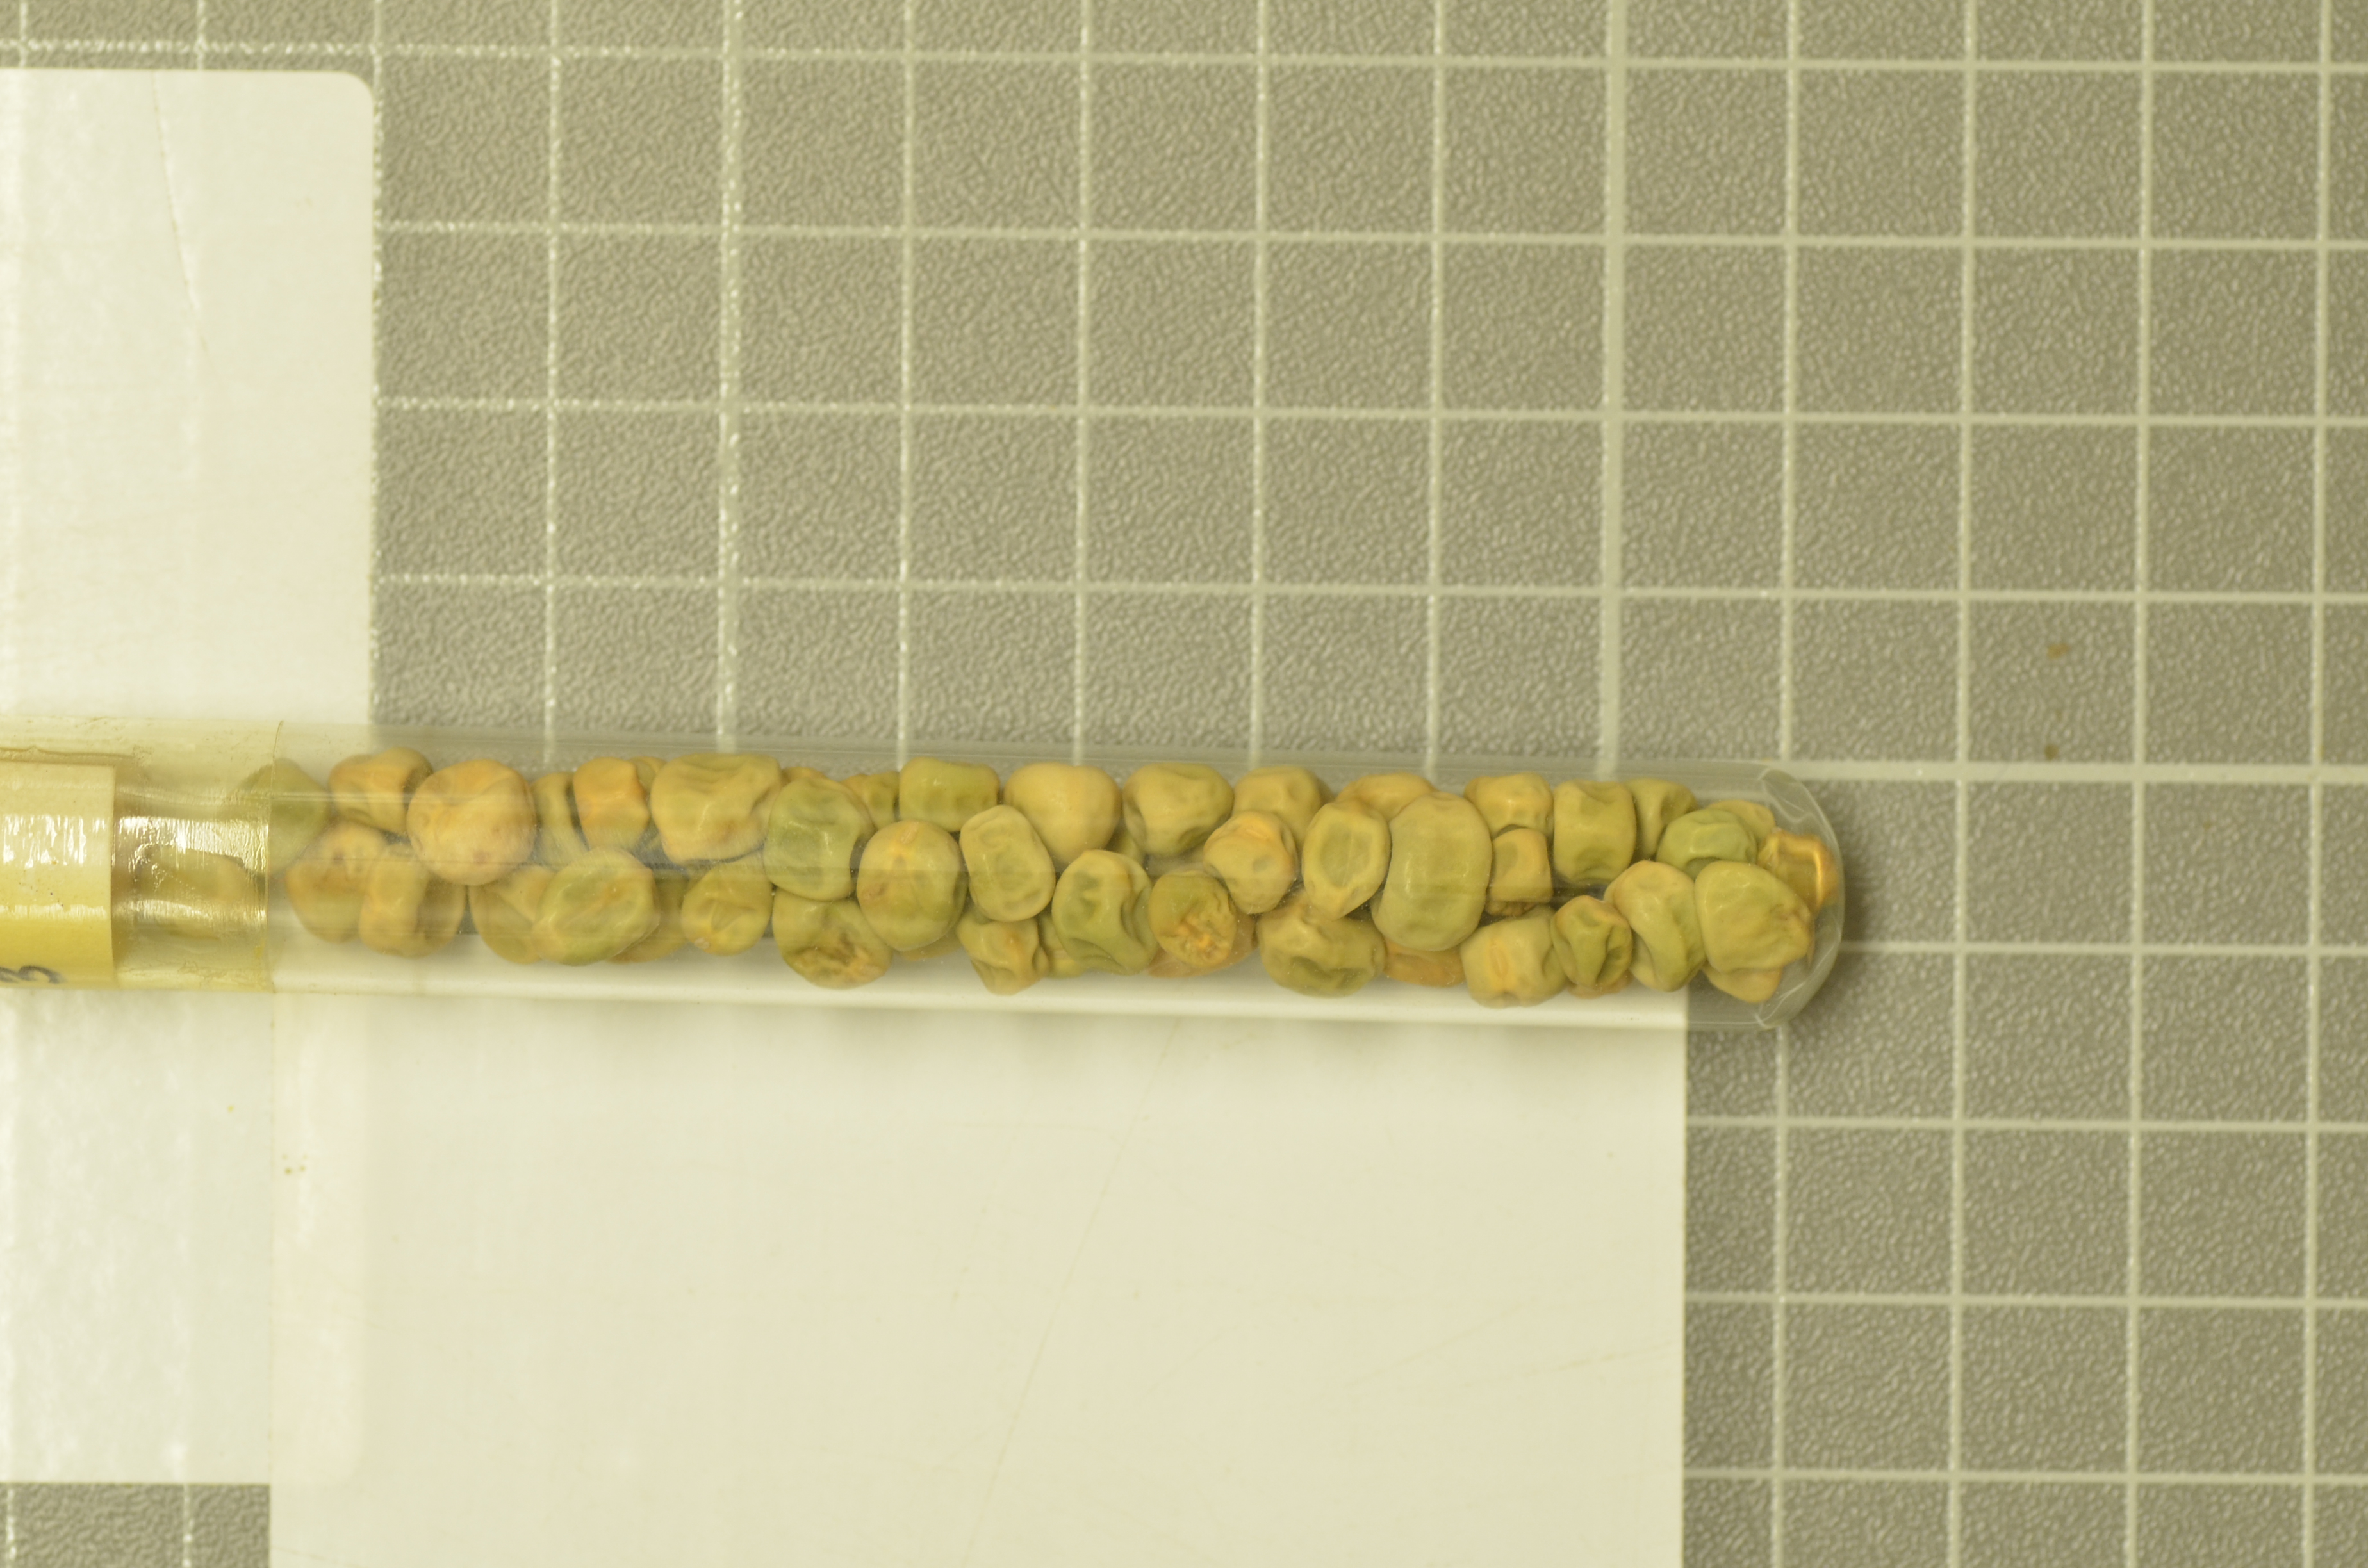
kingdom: Plantae
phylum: Tracheophyta
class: Magnoliopsida
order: Fabales
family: Fabaceae
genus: Lathyrus
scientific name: Lathyrus oleraceus
